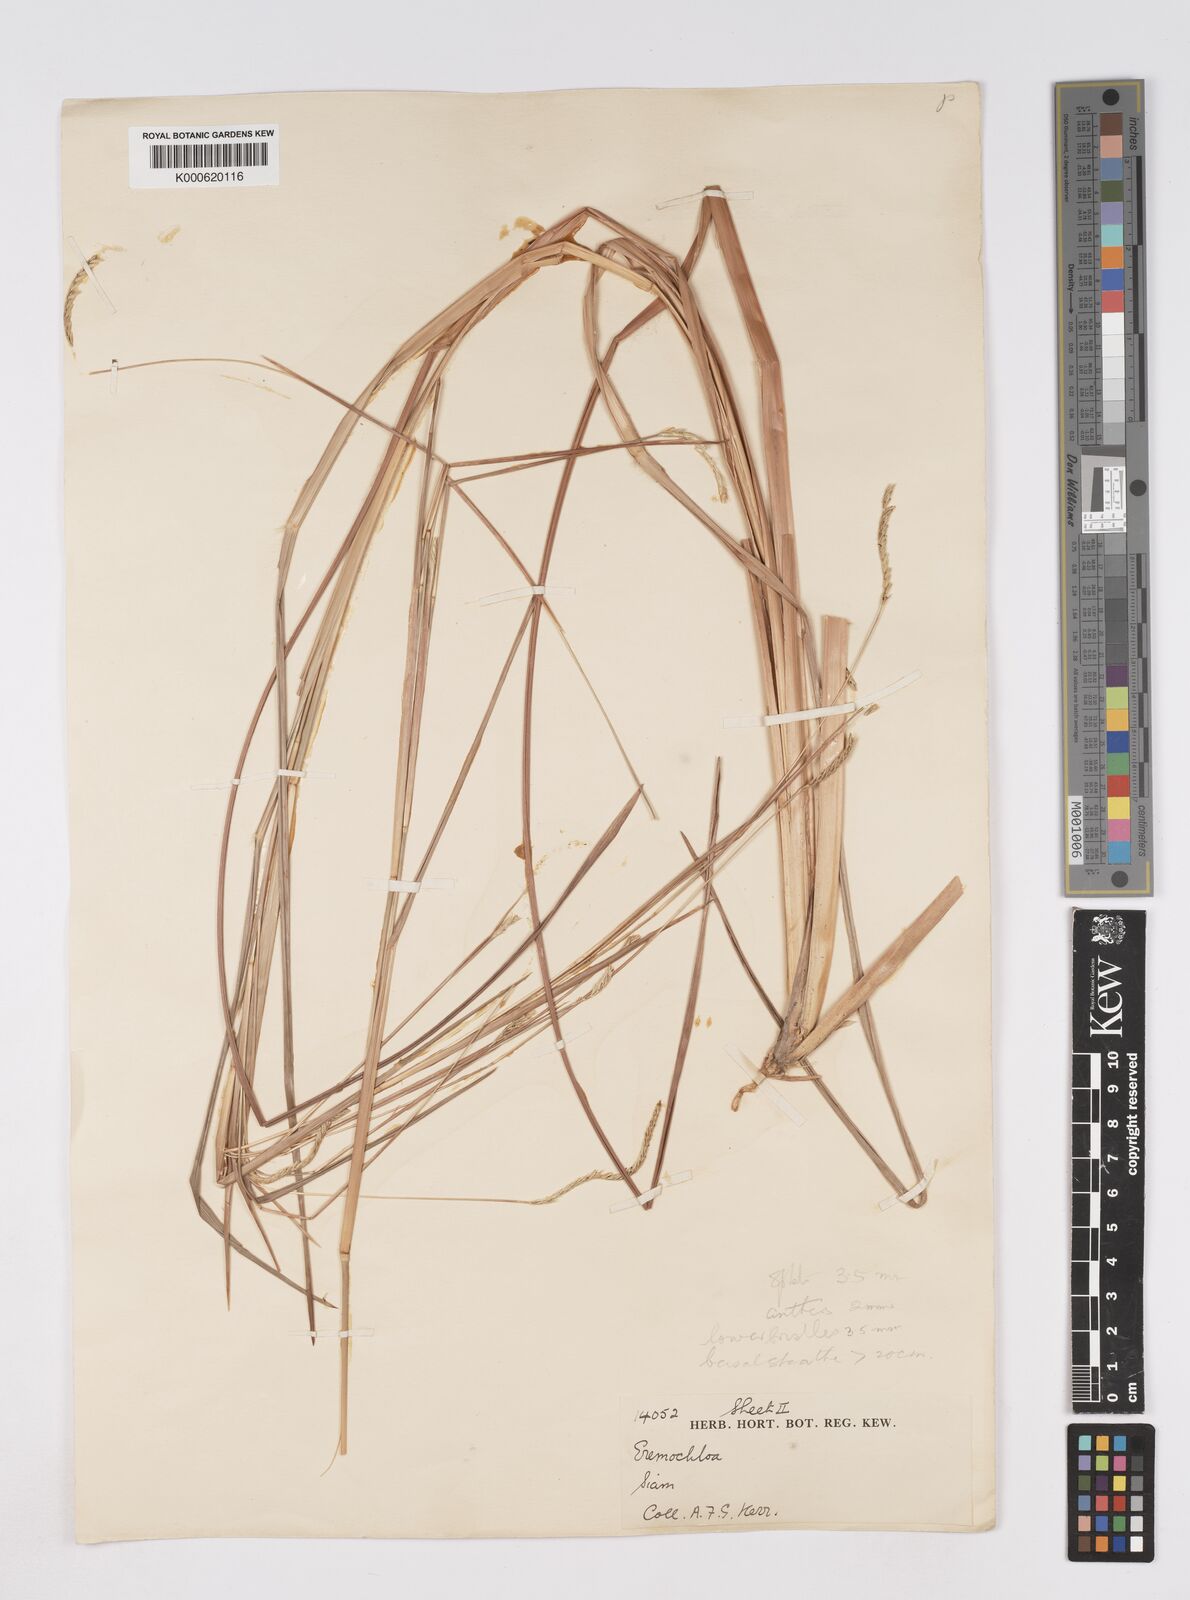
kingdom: Plantae
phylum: Tracheophyta
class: Liliopsida
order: Poales
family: Poaceae
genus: Eremochloa
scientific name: Eremochloa ciliaris
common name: Fringed centipede grass
